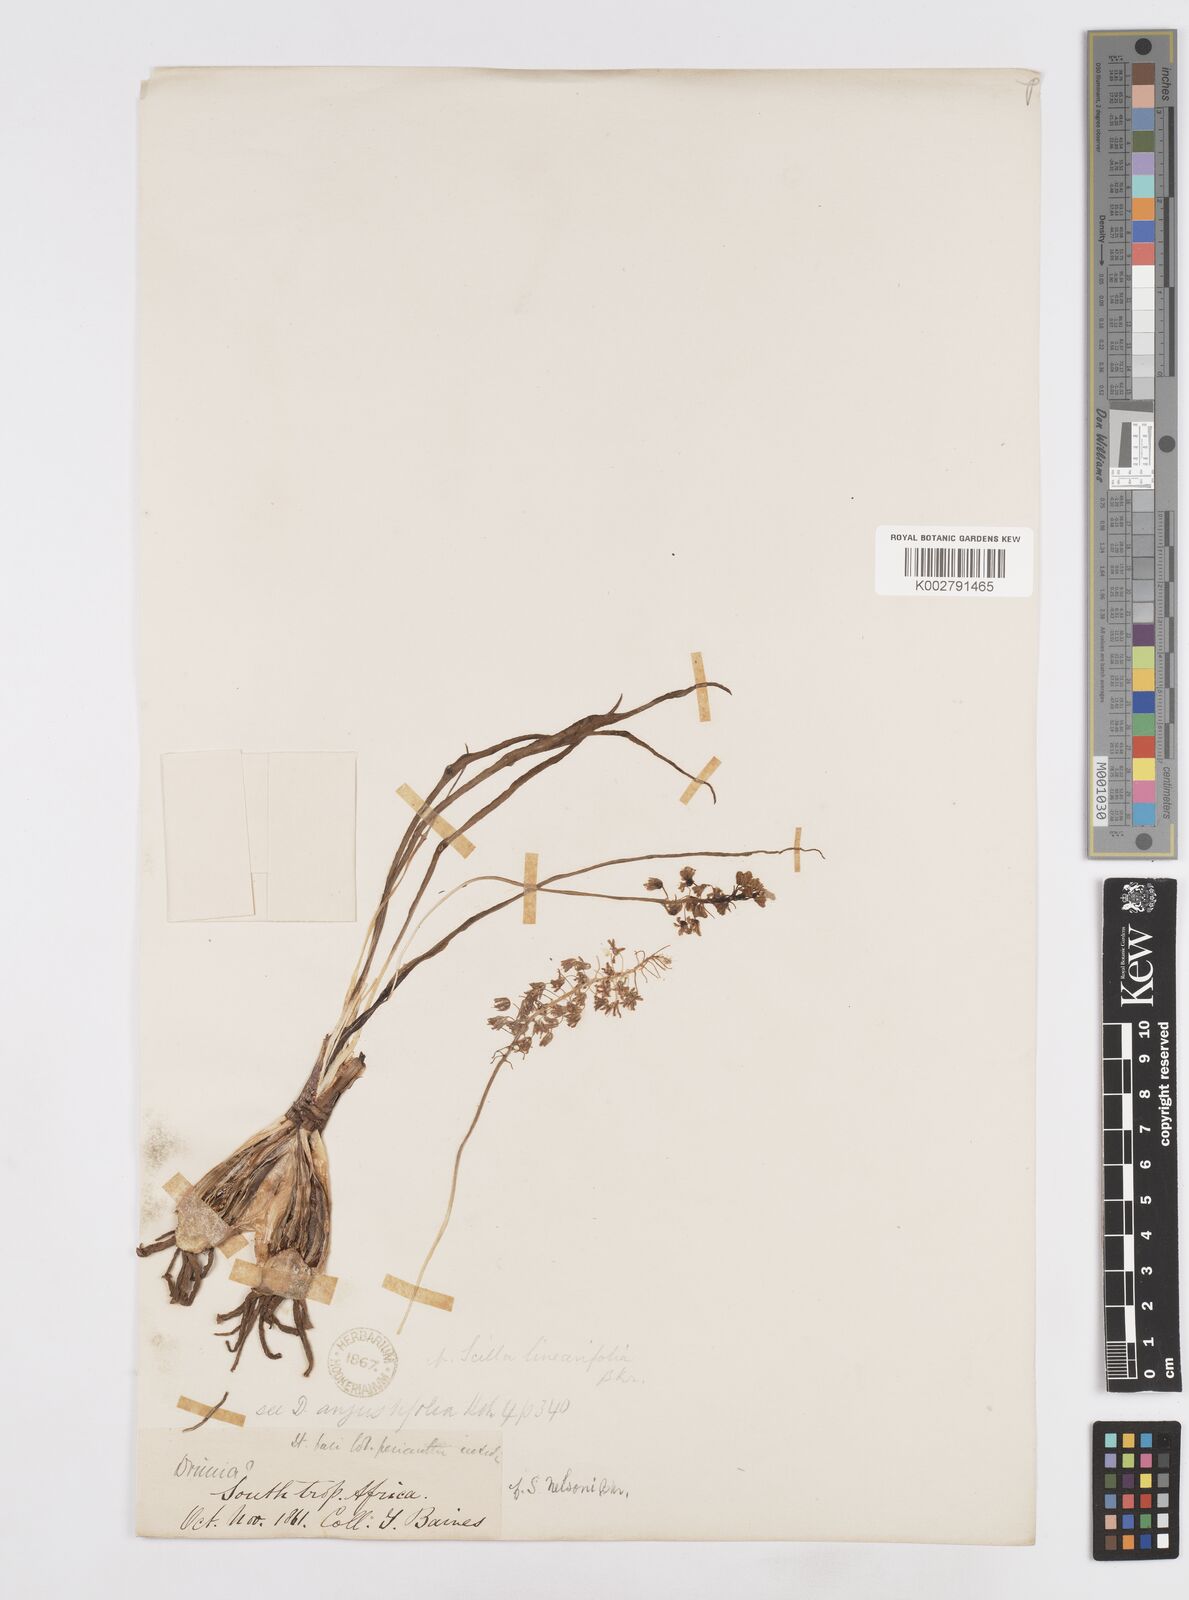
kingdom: Plantae
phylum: Tracheophyta
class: Liliopsida
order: Asparagales
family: Asparagaceae
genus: Scilla
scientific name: Scilla
